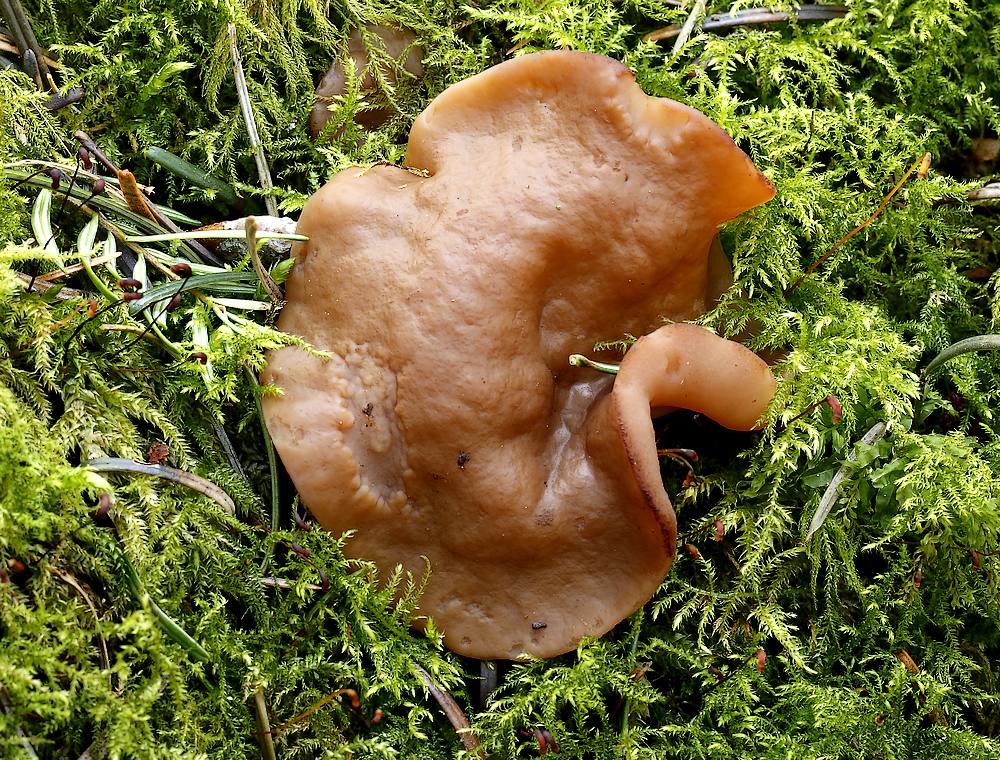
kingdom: Fungi
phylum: Ascomycota
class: Pezizomycetes
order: Pezizales
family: Discinaceae
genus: Discina
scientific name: Discina ancilis
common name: udbredt stenmorkel
